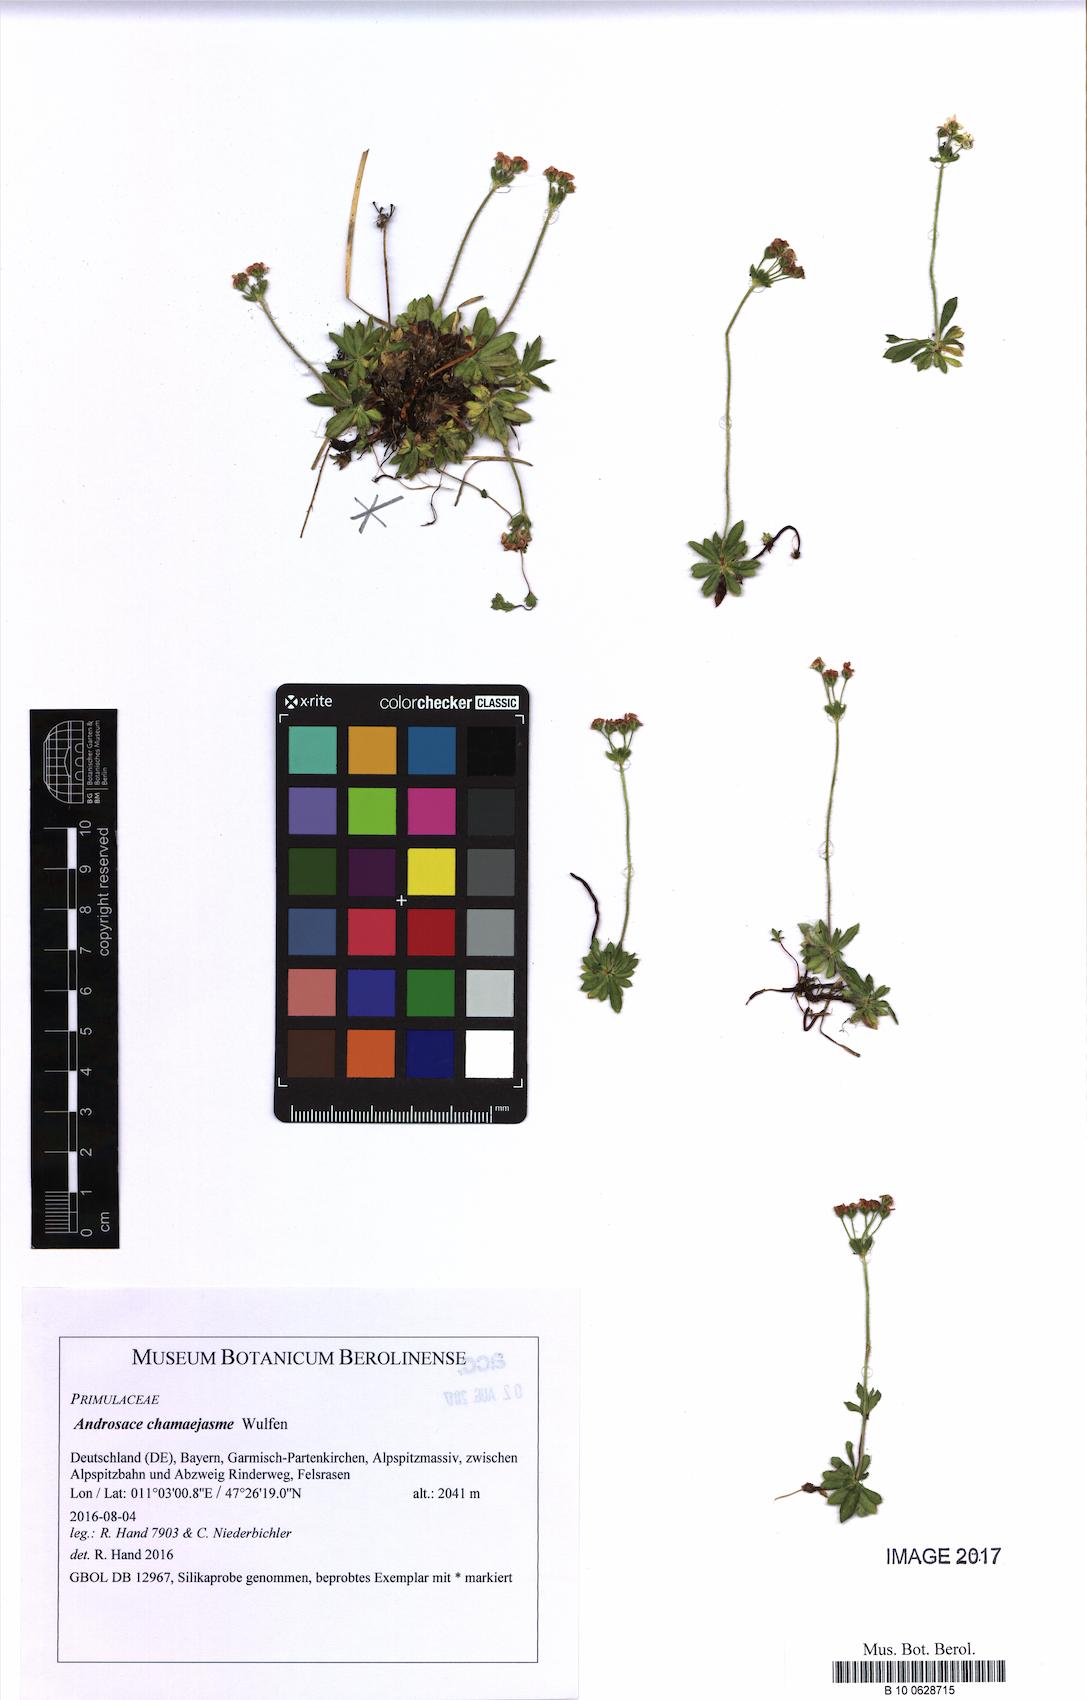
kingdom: Plantae
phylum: Tracheophyta
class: Magnoliopsida
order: Ericales
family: Primulaceae
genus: Androsace
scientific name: Androsace chamaejasme
